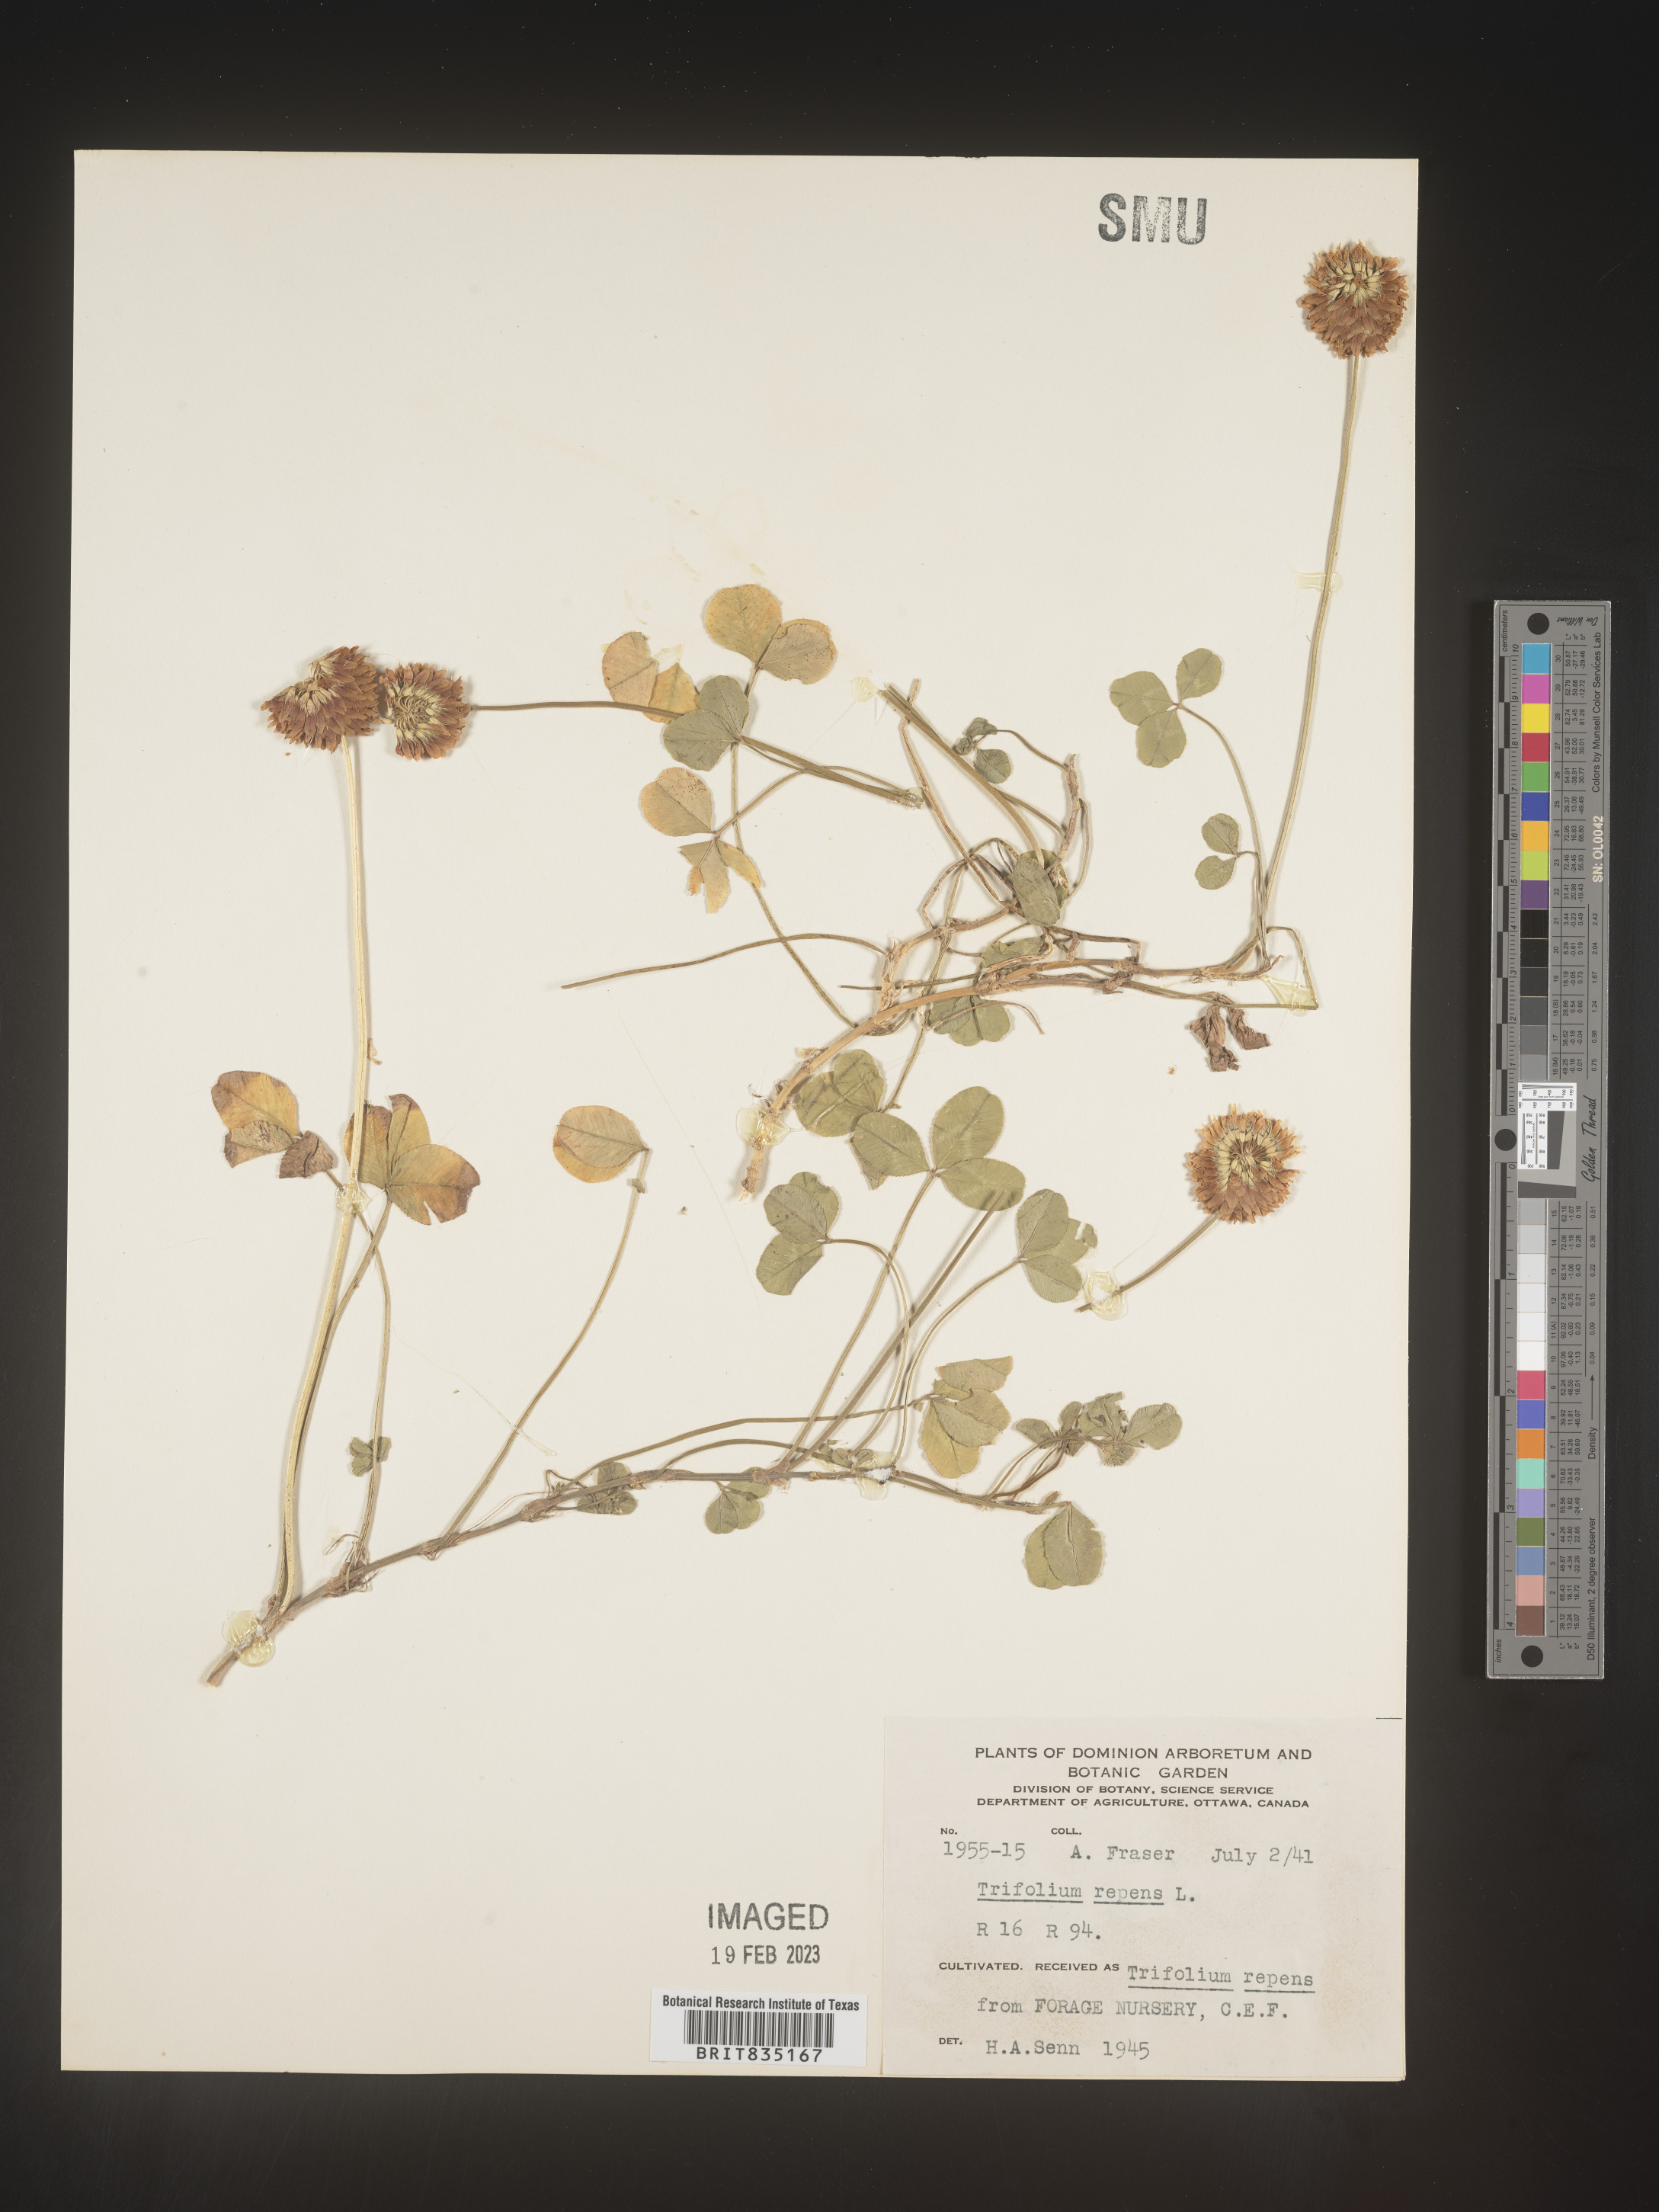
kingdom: Plantae
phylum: Tracheophyta
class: Magnoliopsida
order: Fabales
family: Fabaceae
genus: Trigonella
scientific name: Trigonella
